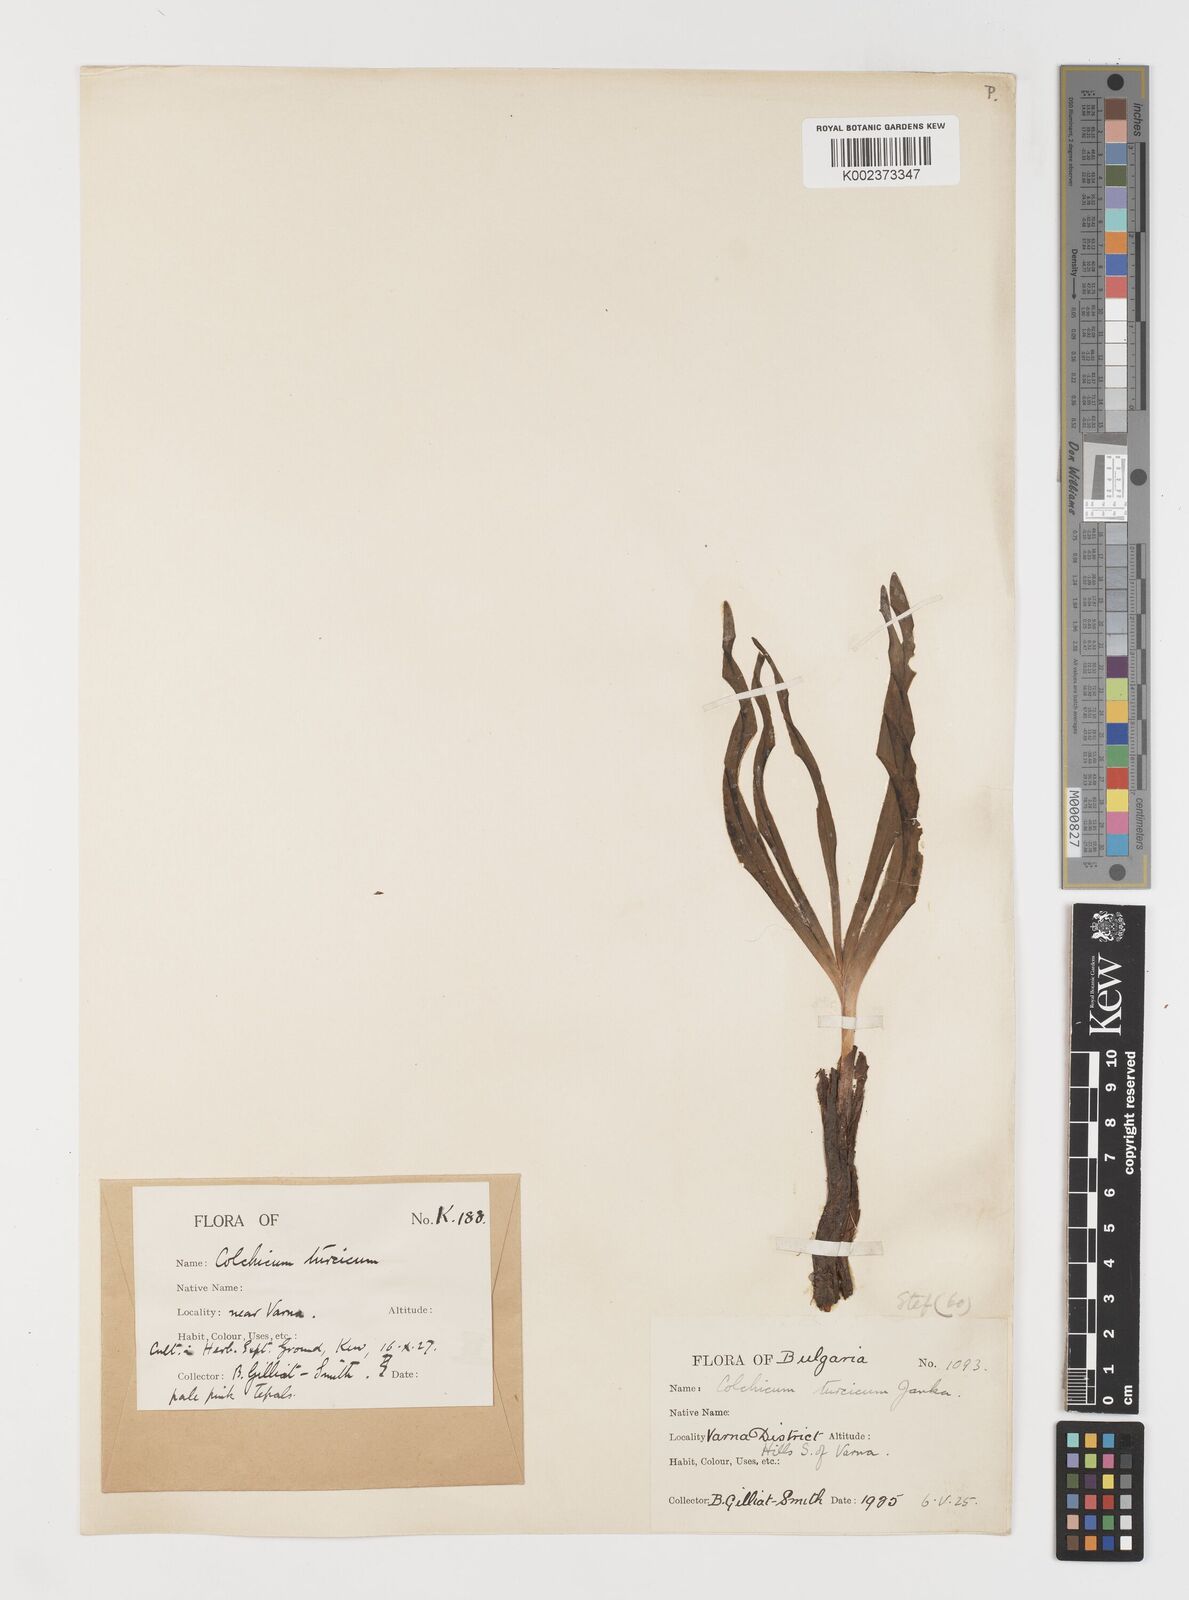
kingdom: Plantae
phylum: Tracheophyta
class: Liliopsida
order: Liliales
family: Colchicaceae
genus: Colchicum
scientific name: Colchicum turcicum
